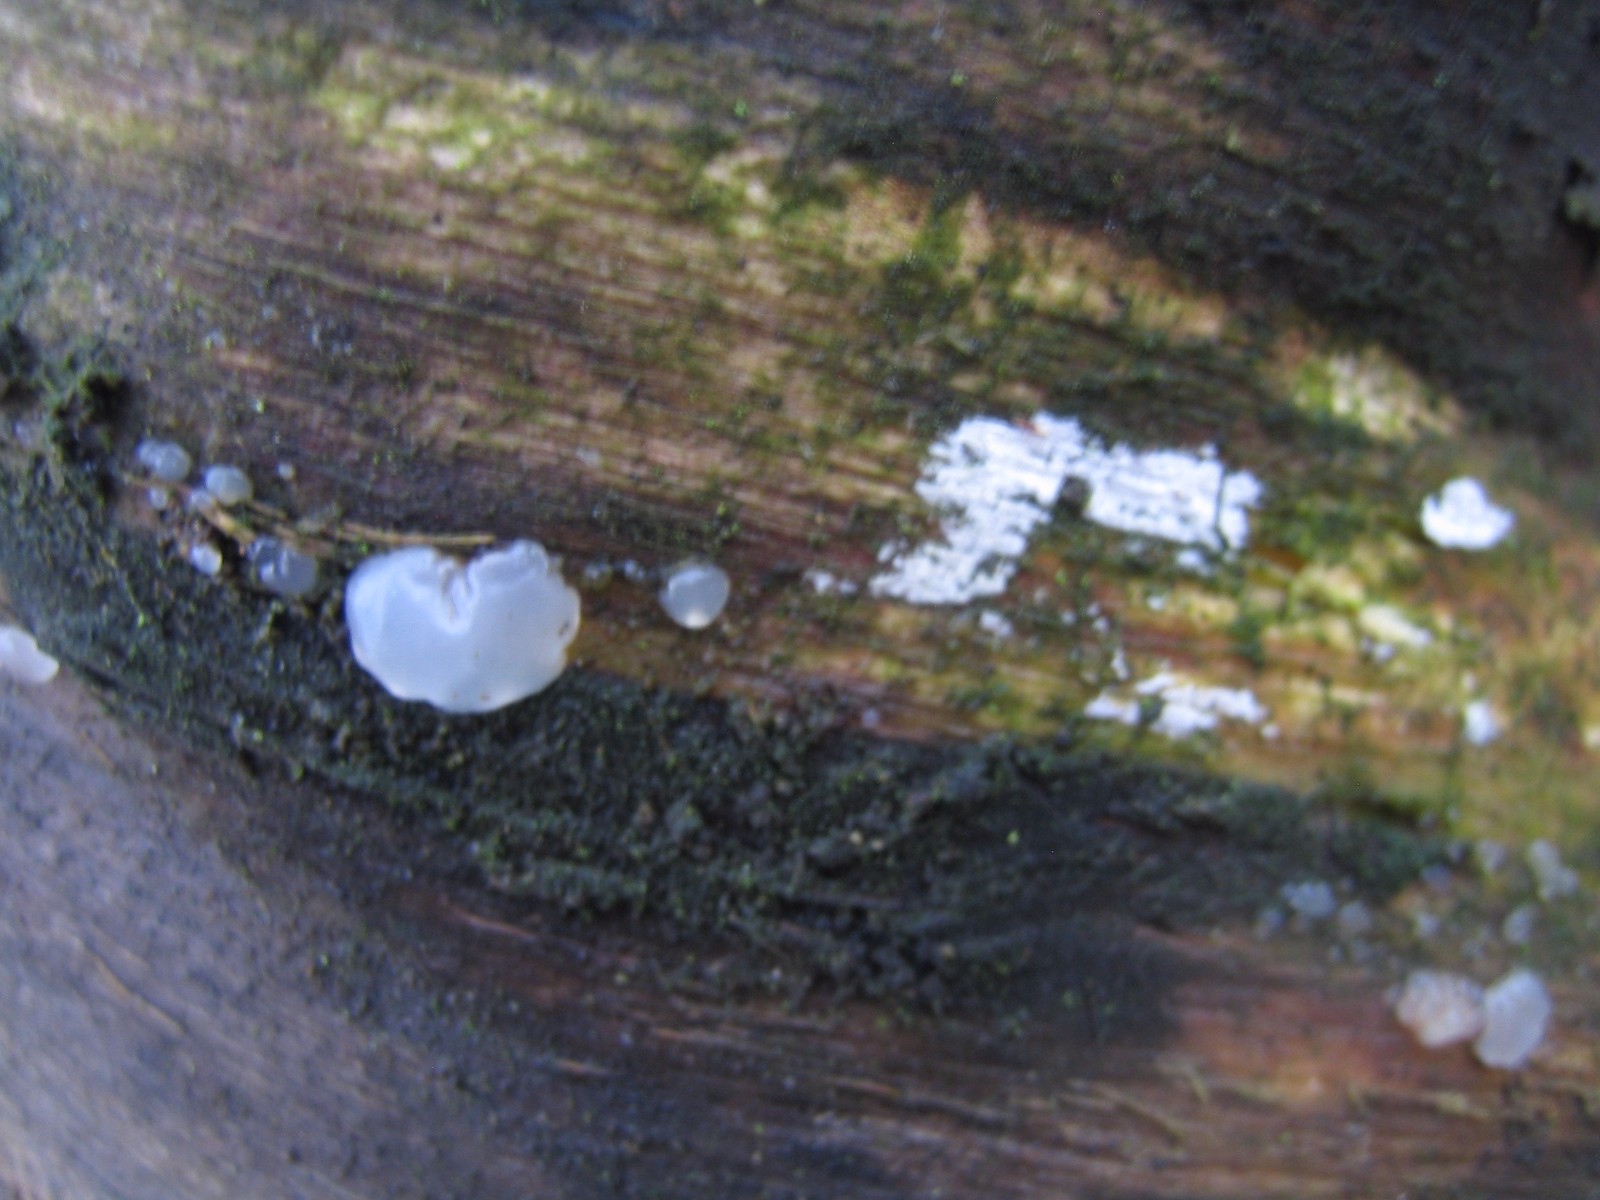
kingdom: Fungi
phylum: Basidiomycota
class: Agaricomycetes
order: Auriculariales
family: Auriculariaceae
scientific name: Auriculariaceae
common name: judasørefamilien
